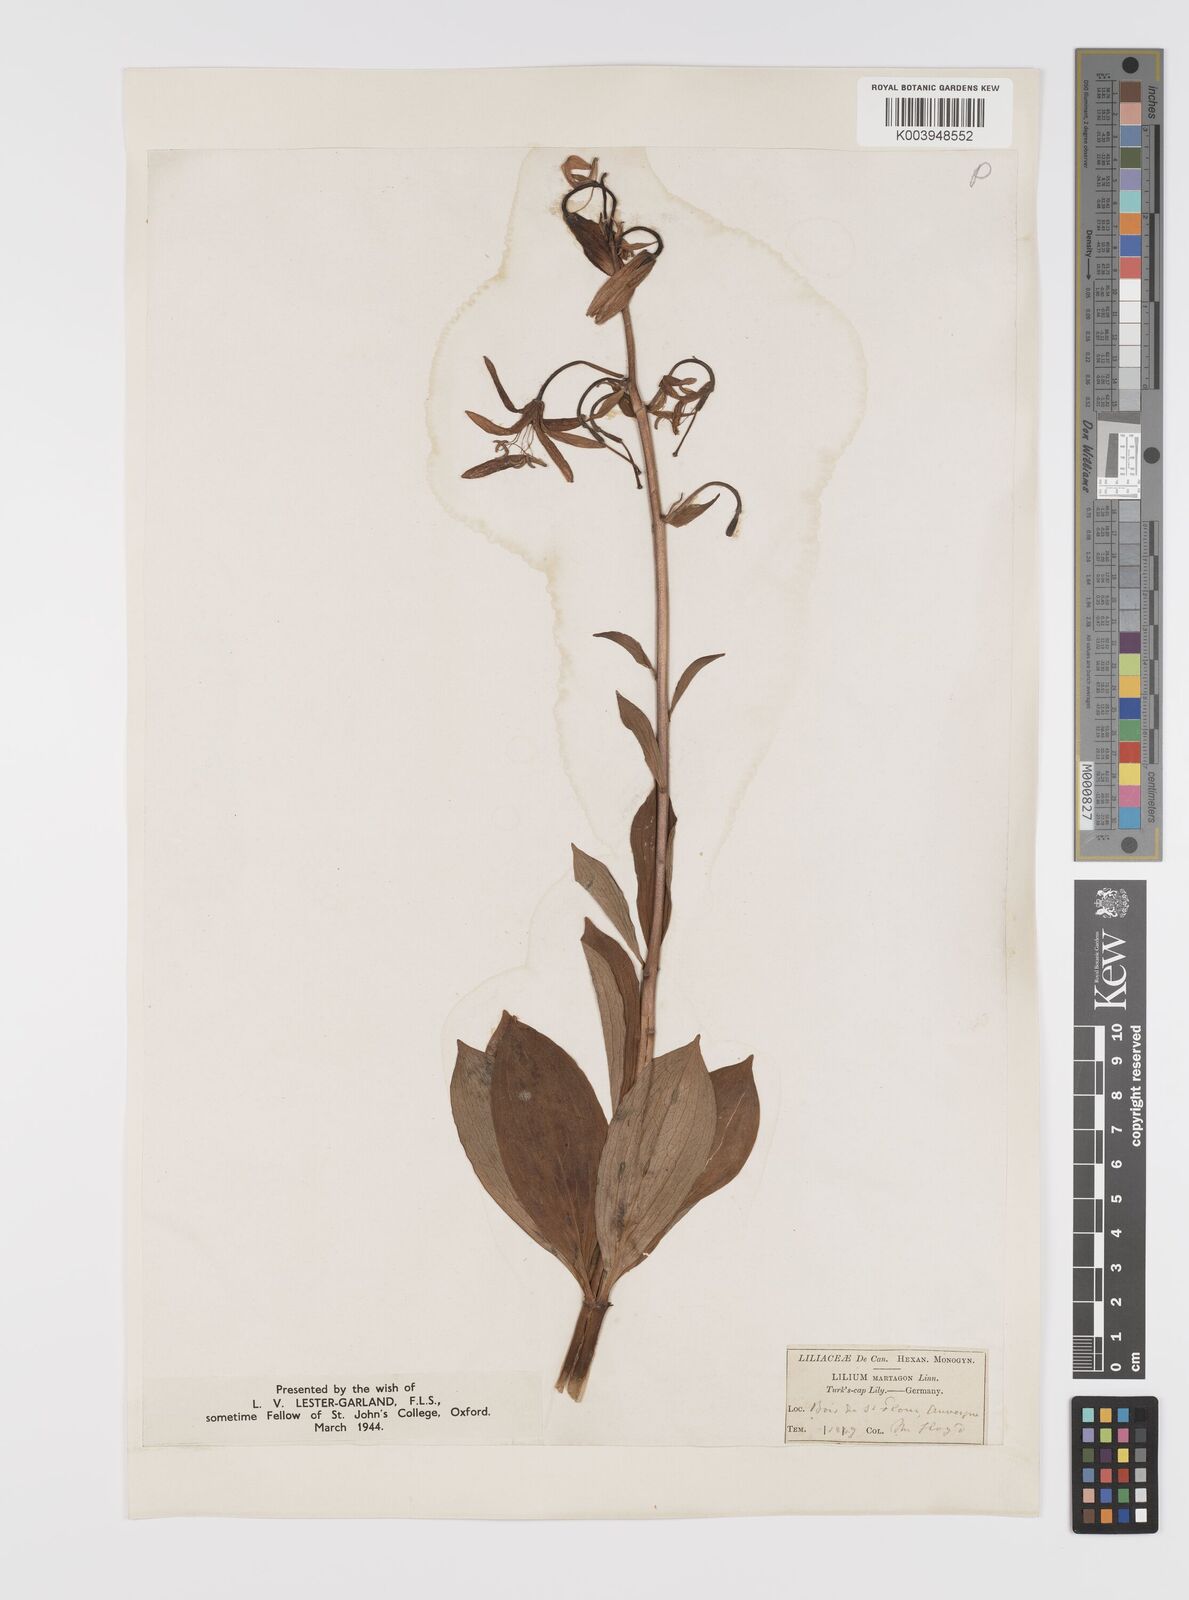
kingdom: Plantae
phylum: Tracheophyta
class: Liliopsida
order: Liliales
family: Liliaceae
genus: Lilium
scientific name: Lilium martagon
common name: Martagon lily
